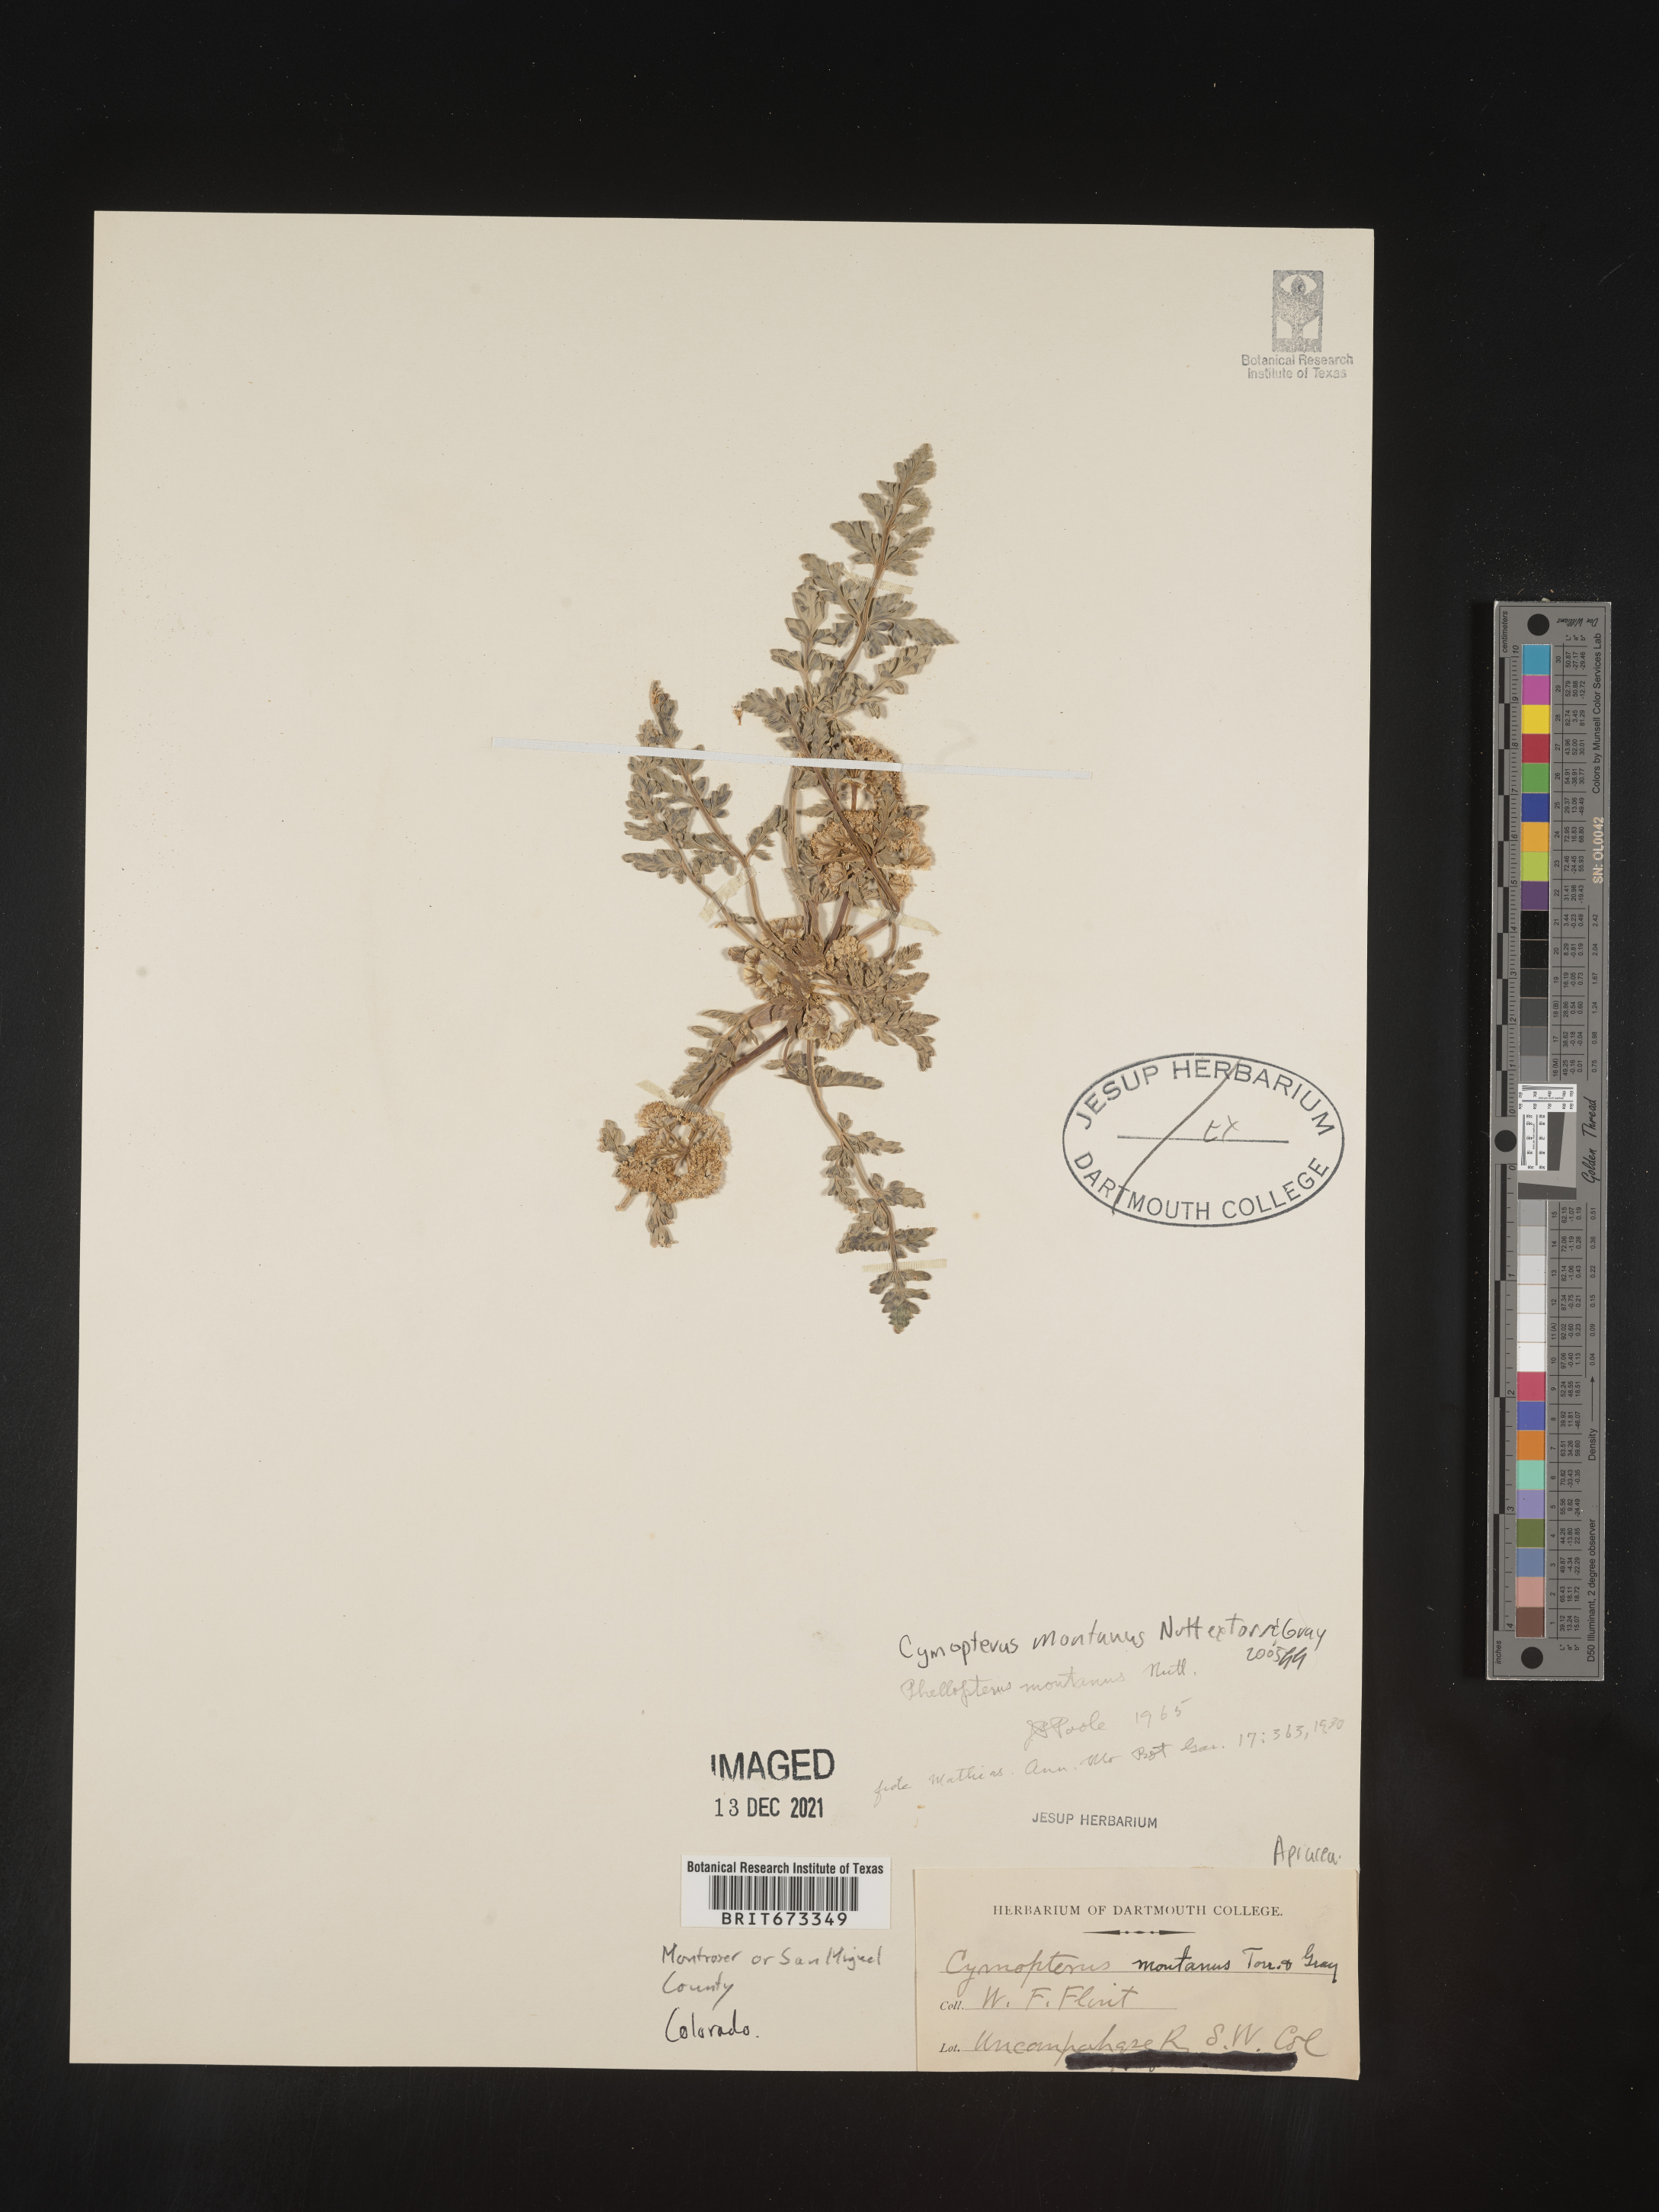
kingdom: Plantae
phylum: Tracheophyta
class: Magnoliopsida
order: Apiales
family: Apiaceae
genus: Vesper
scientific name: Vesper montanus
